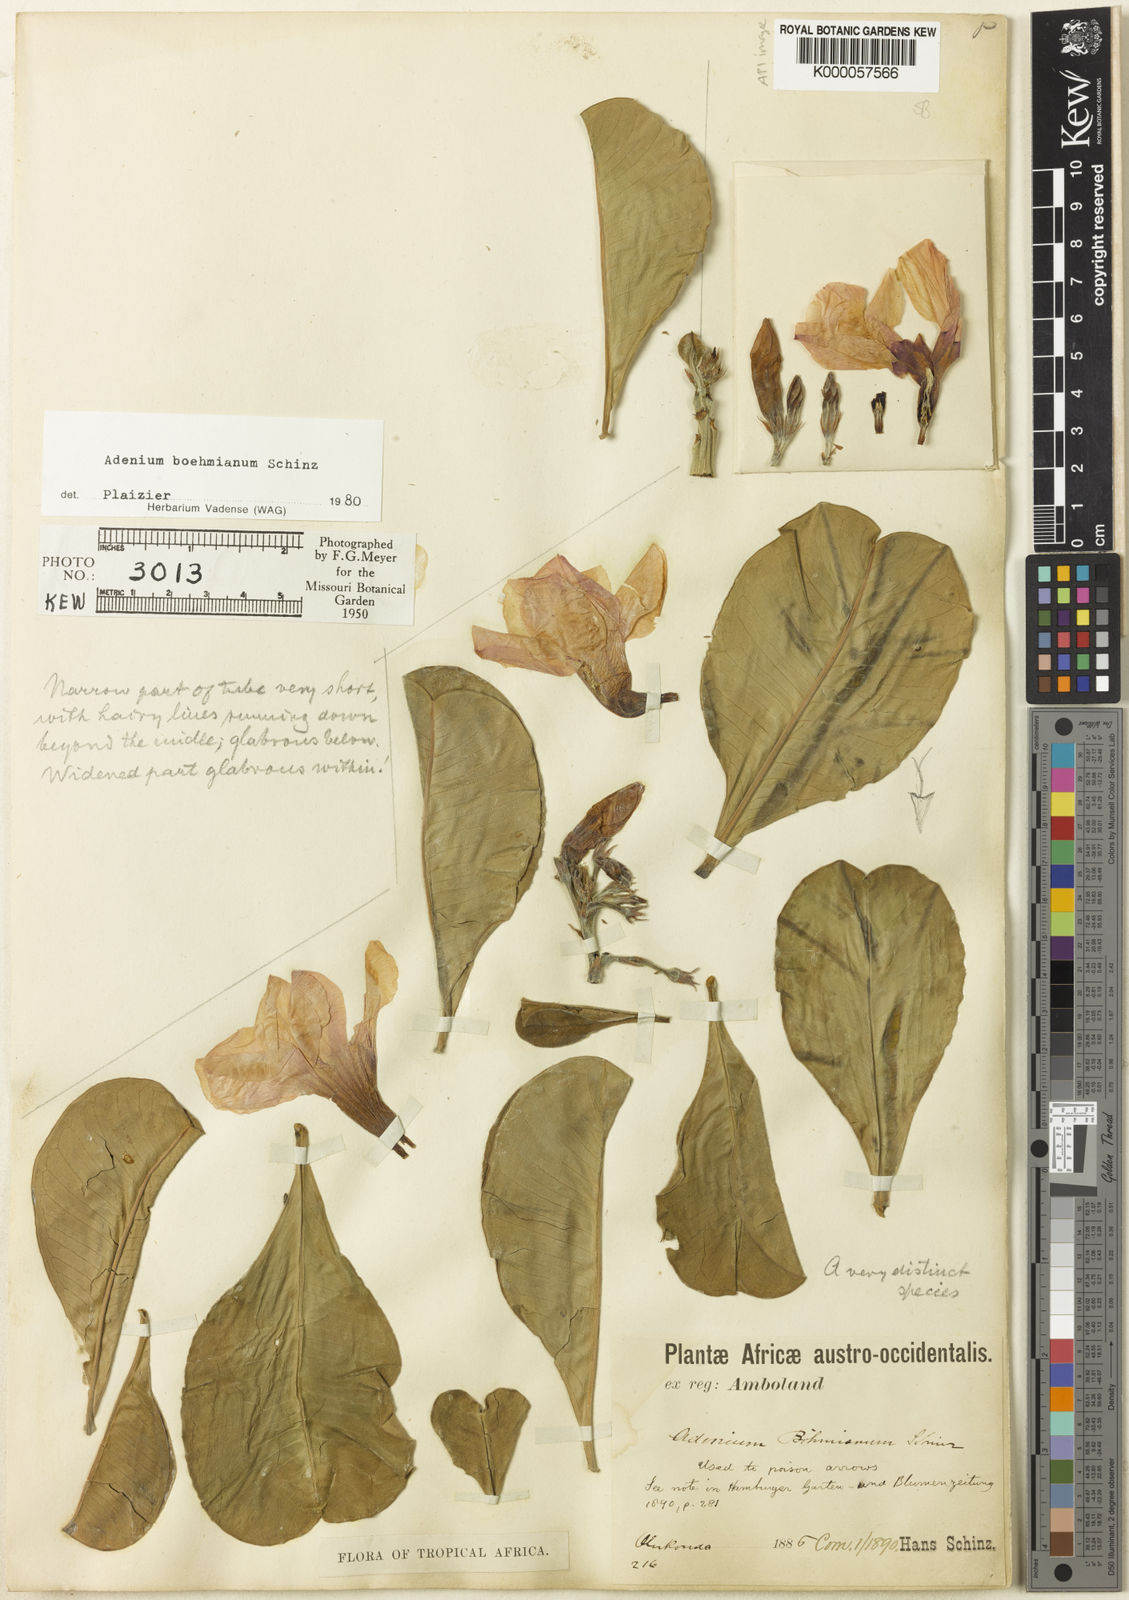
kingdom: Plantae
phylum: Tracheophyta
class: Magnoliopsida
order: Gentianales
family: Apocynaceae
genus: Adenium
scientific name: Adenium obesum
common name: Desert-rose
